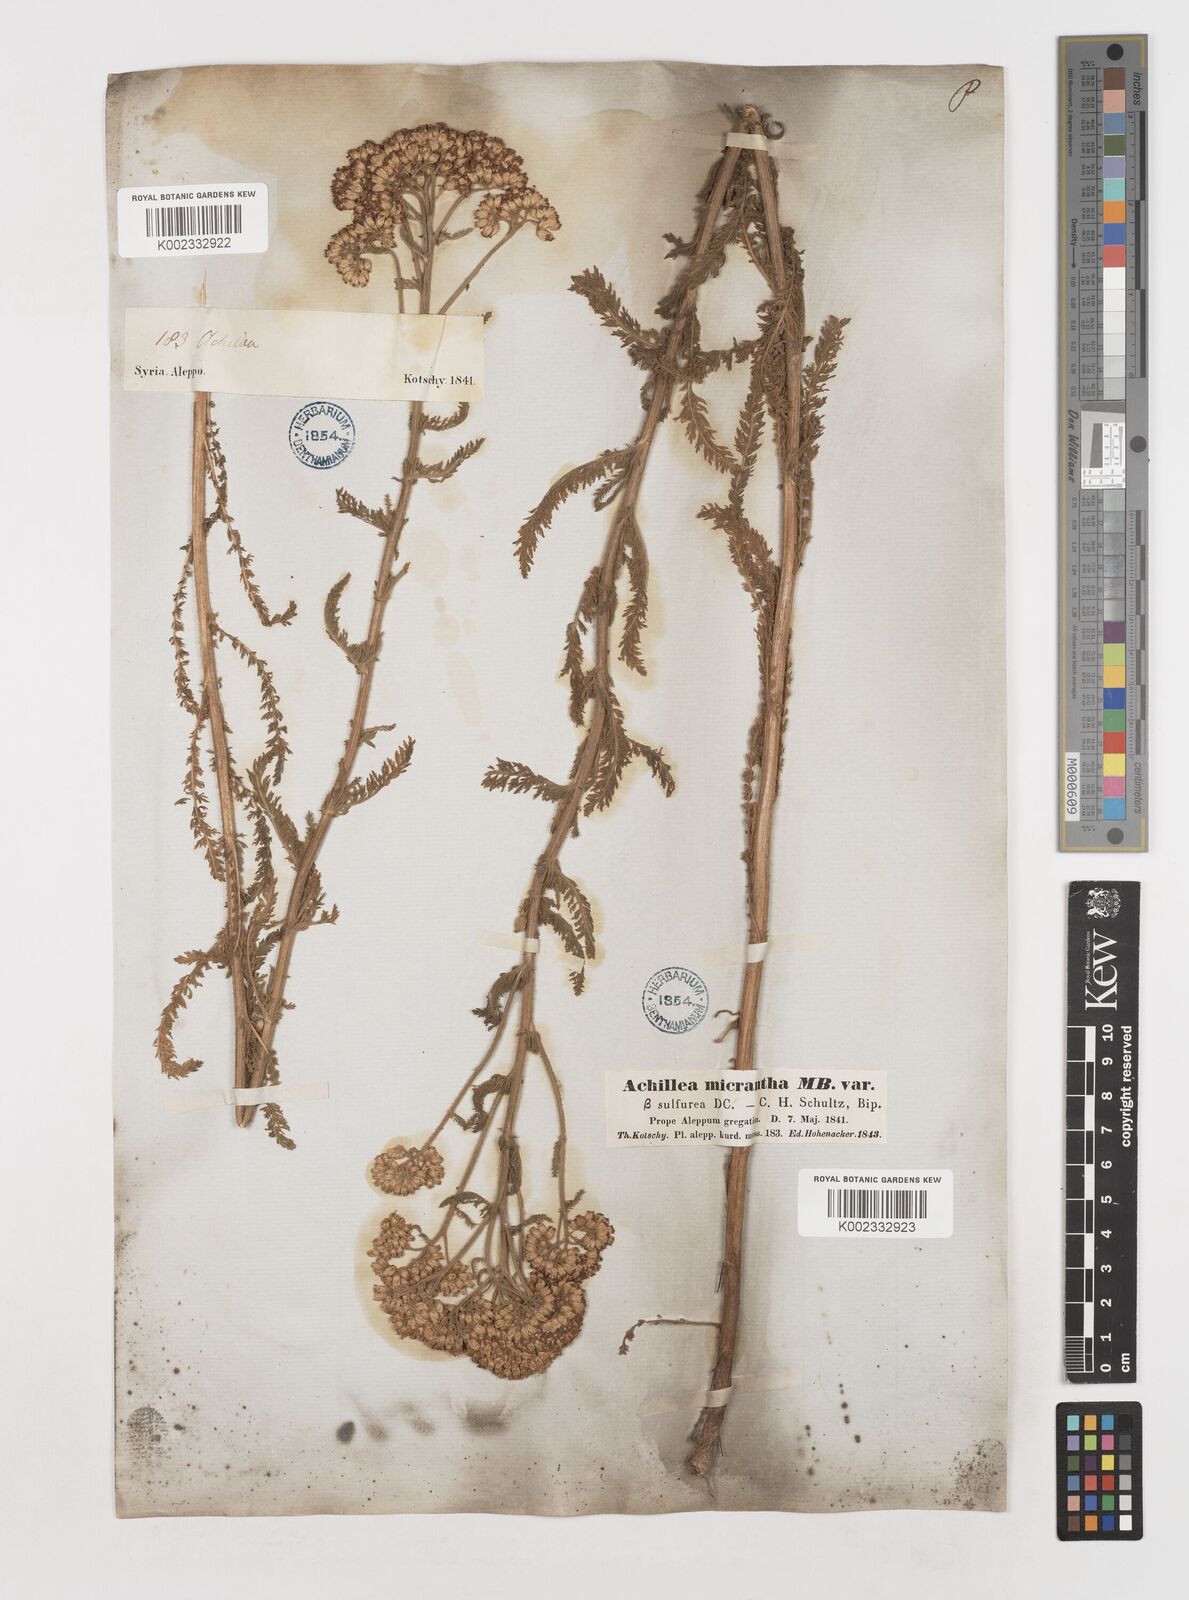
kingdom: Plantae
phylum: Tracheophyta
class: Magnoliopsida
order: Asterales
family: Asteraceae
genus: Achillea
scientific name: Achillea arabica
